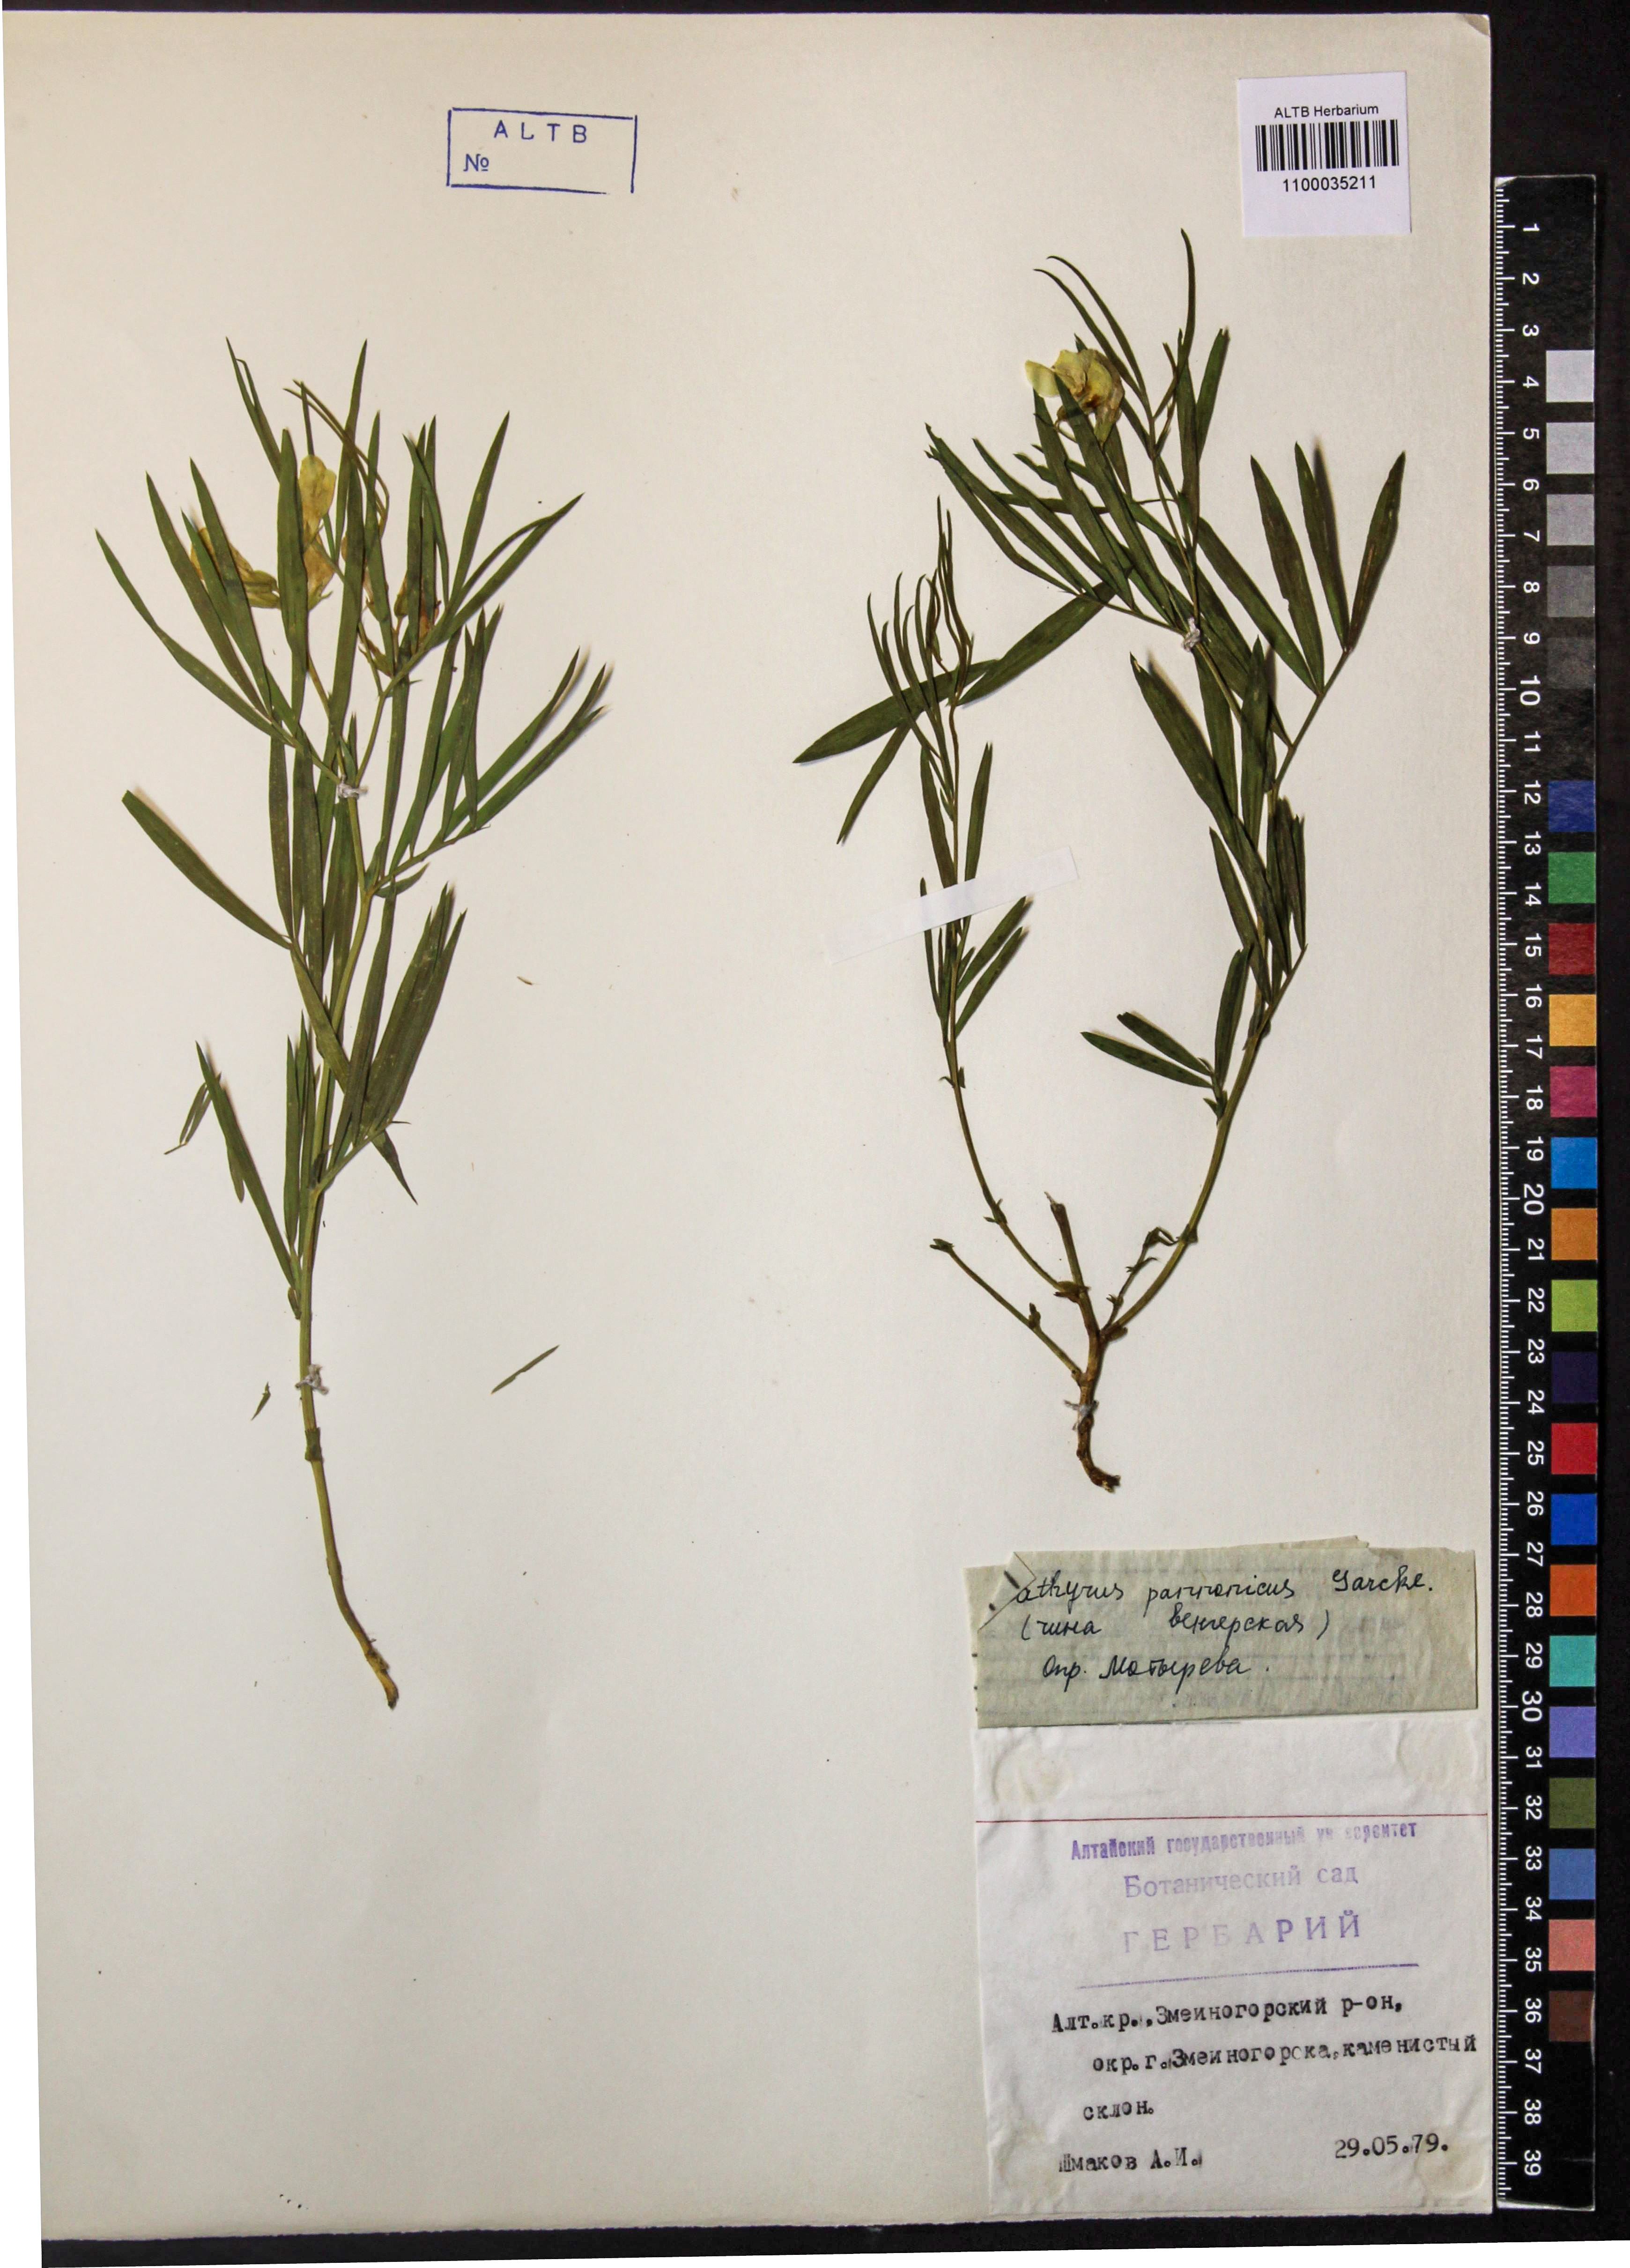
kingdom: Plantae
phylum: Tracheophyta
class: Magnoliopsida
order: Fabales
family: Fabaceae
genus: Lathyrus
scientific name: Lathyrus pannonicus
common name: Pea
